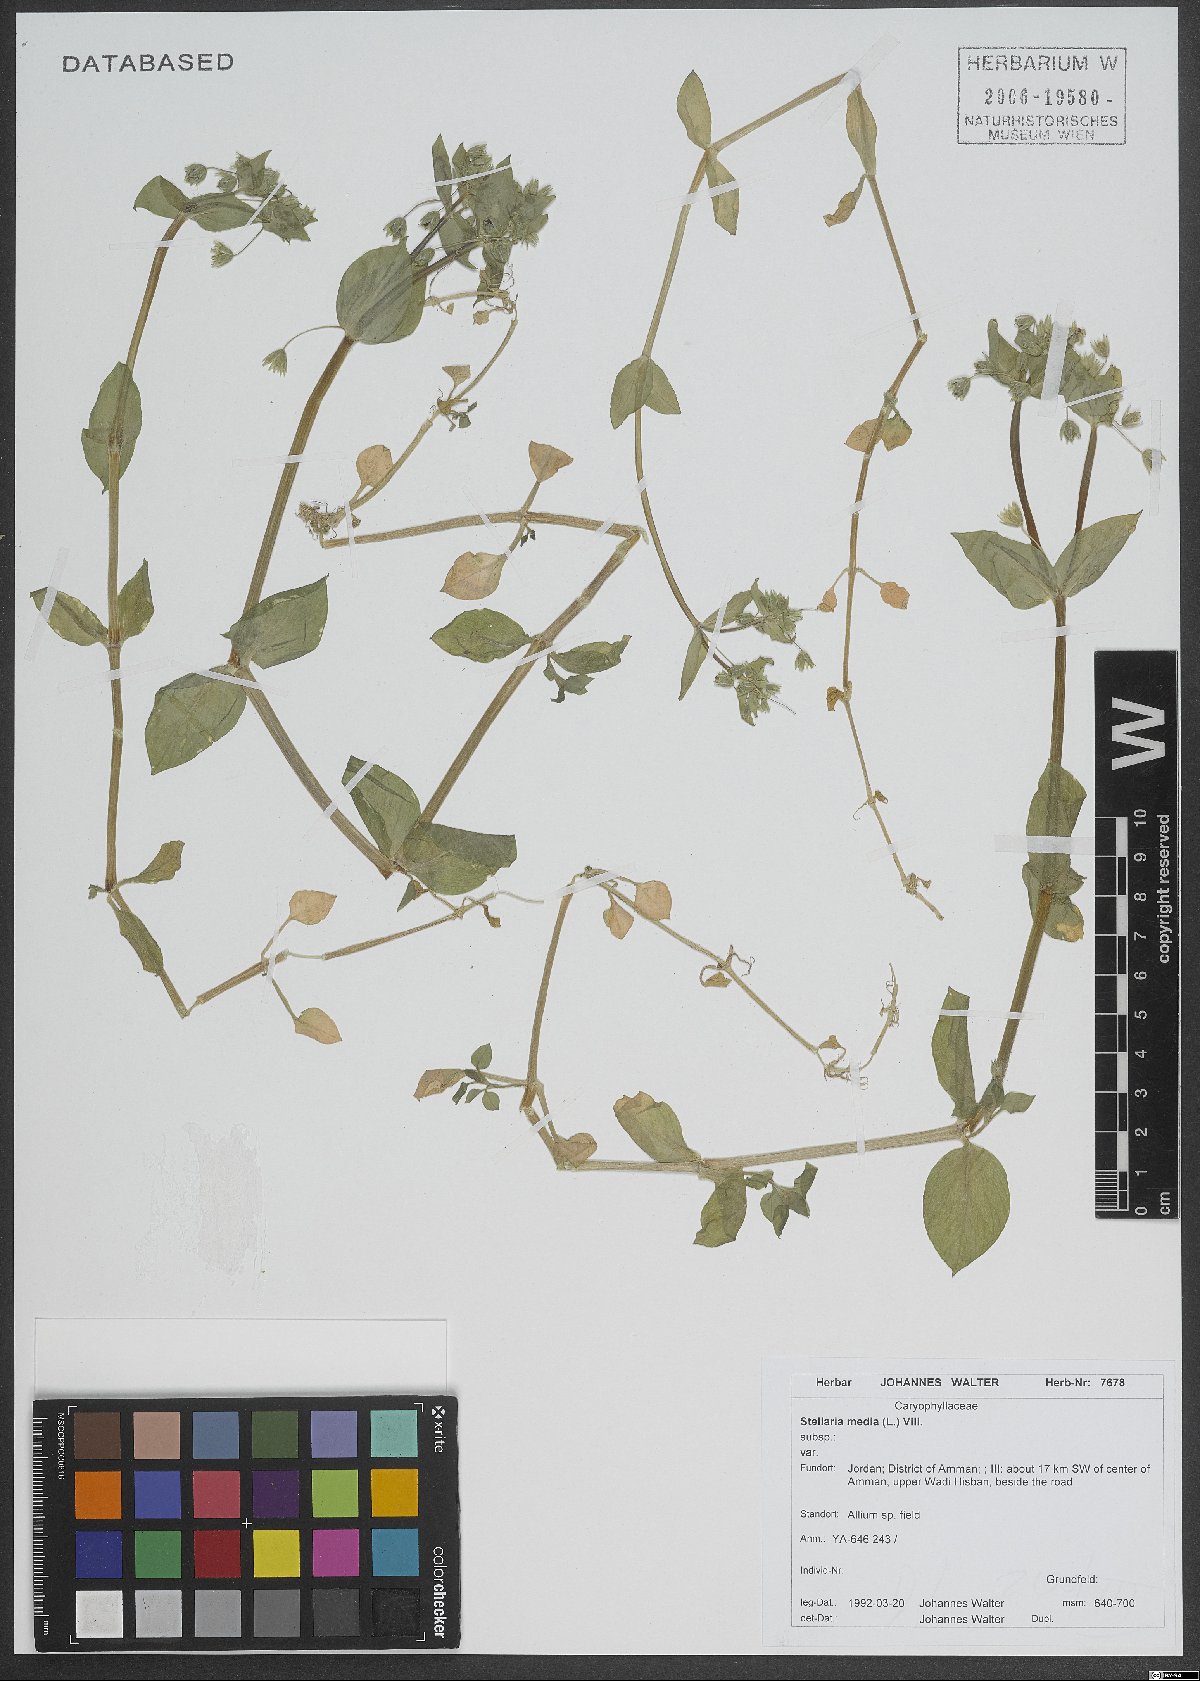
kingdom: Plantae
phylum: Tracheophyta
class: Magnoliopsida
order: Caryophyllales
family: Caryophyllaceae
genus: Stellaria
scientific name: Stellaria ruderalis
